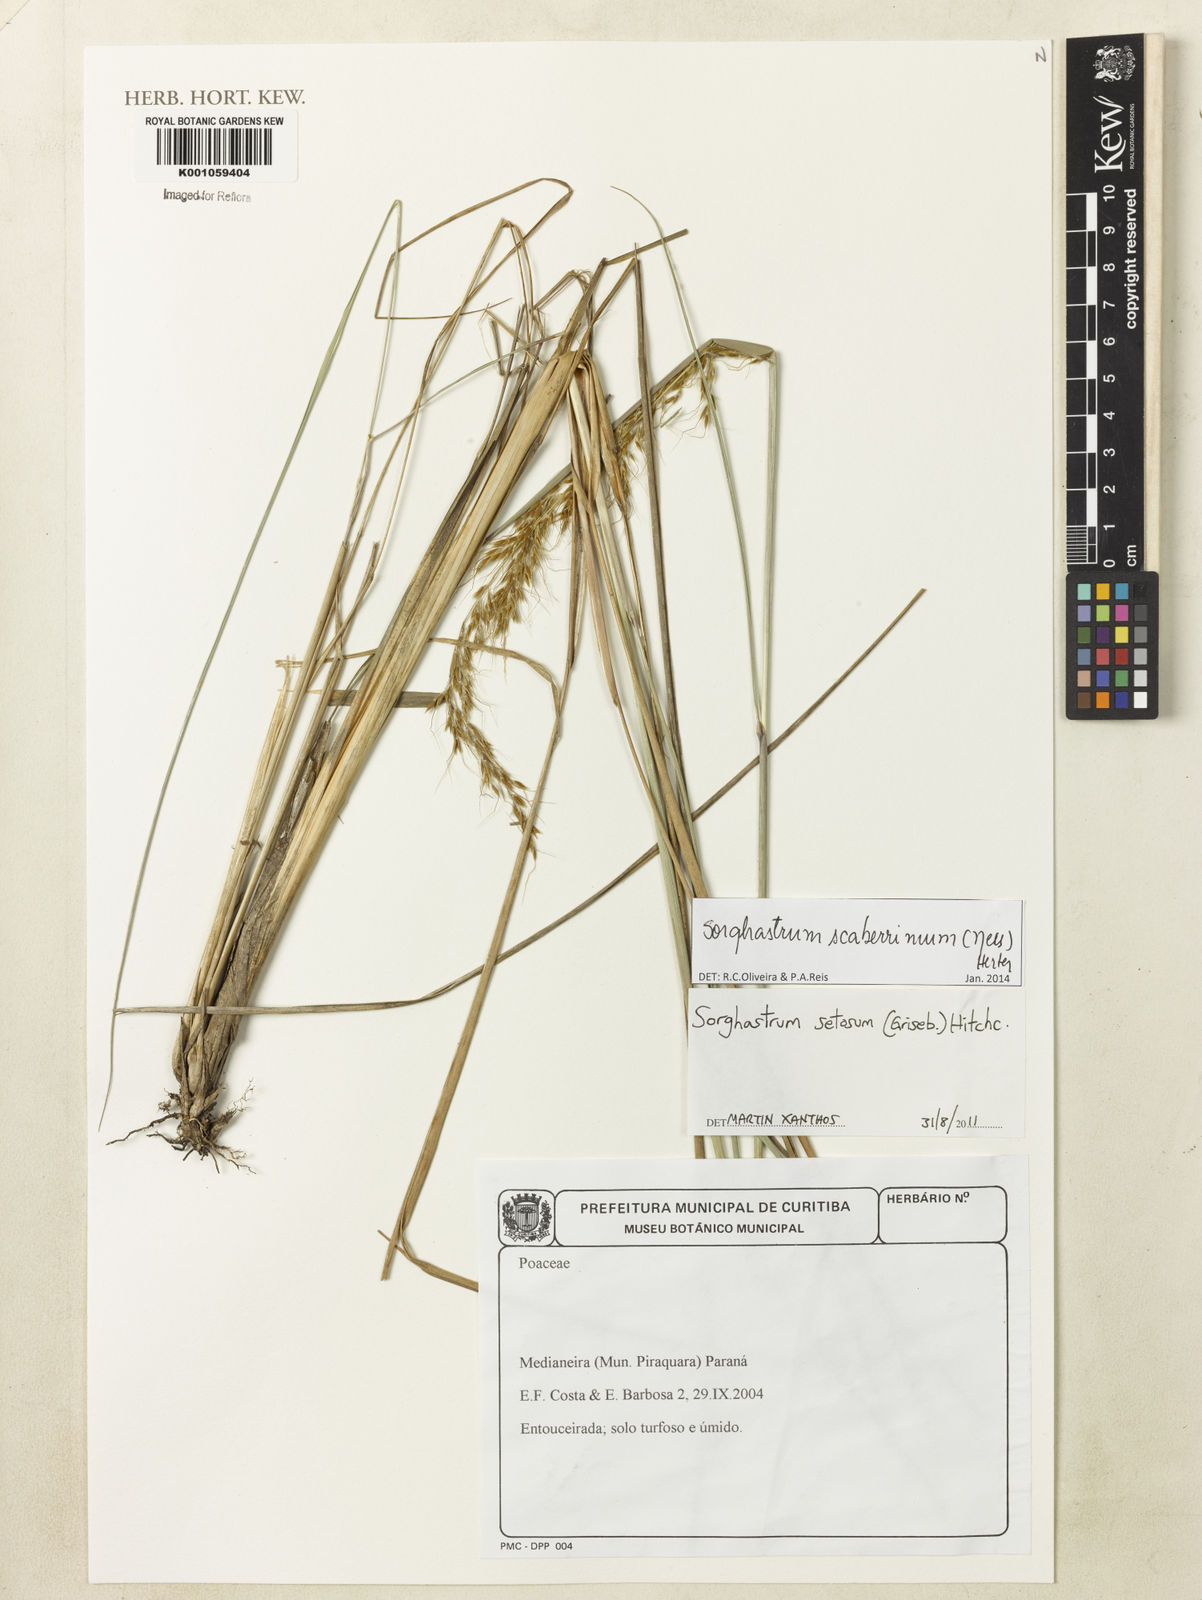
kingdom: Plantae
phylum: Tracheophyta
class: Liliopsida
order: Poales
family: Poaceae
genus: Sorghastrum
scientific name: Sorghastrum scaberrimum
